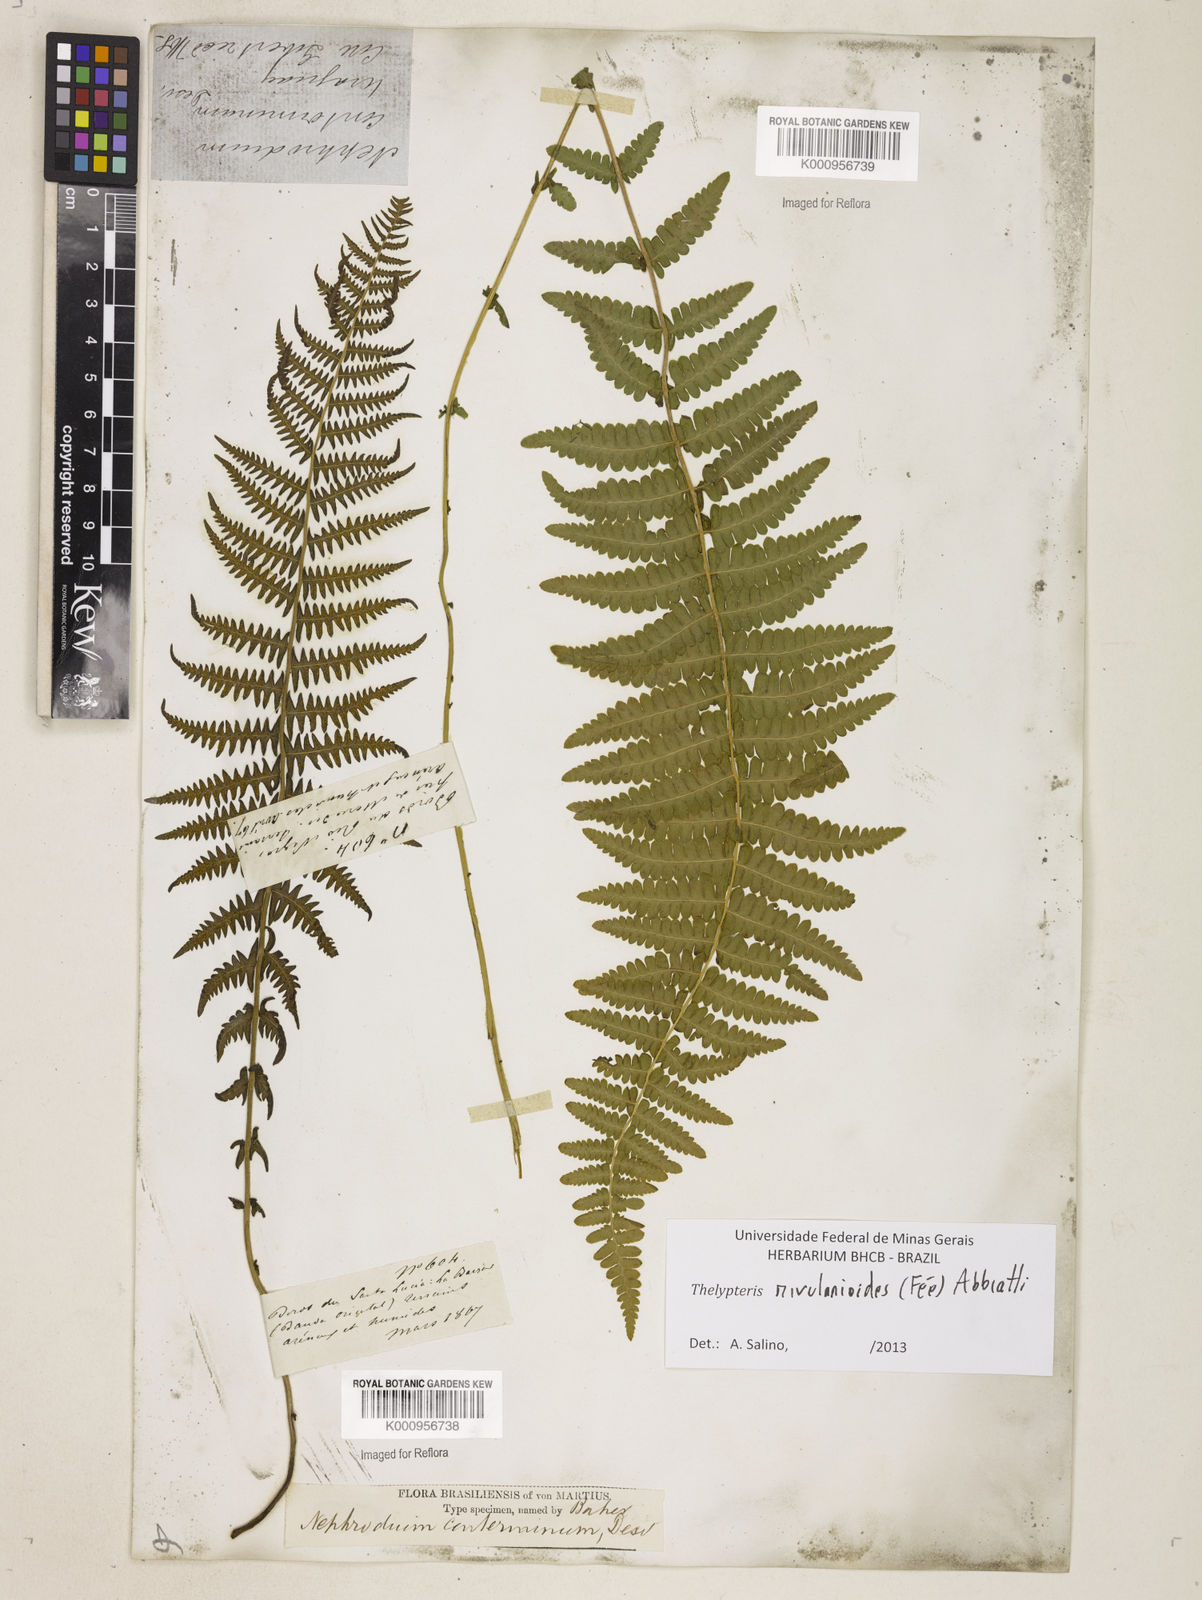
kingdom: Plantae
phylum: Tracheophyta
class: Polypodiopsida
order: Polypodiales
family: Thelypteridaceae
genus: Amauropelta
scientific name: Amauropelta rivularioides
